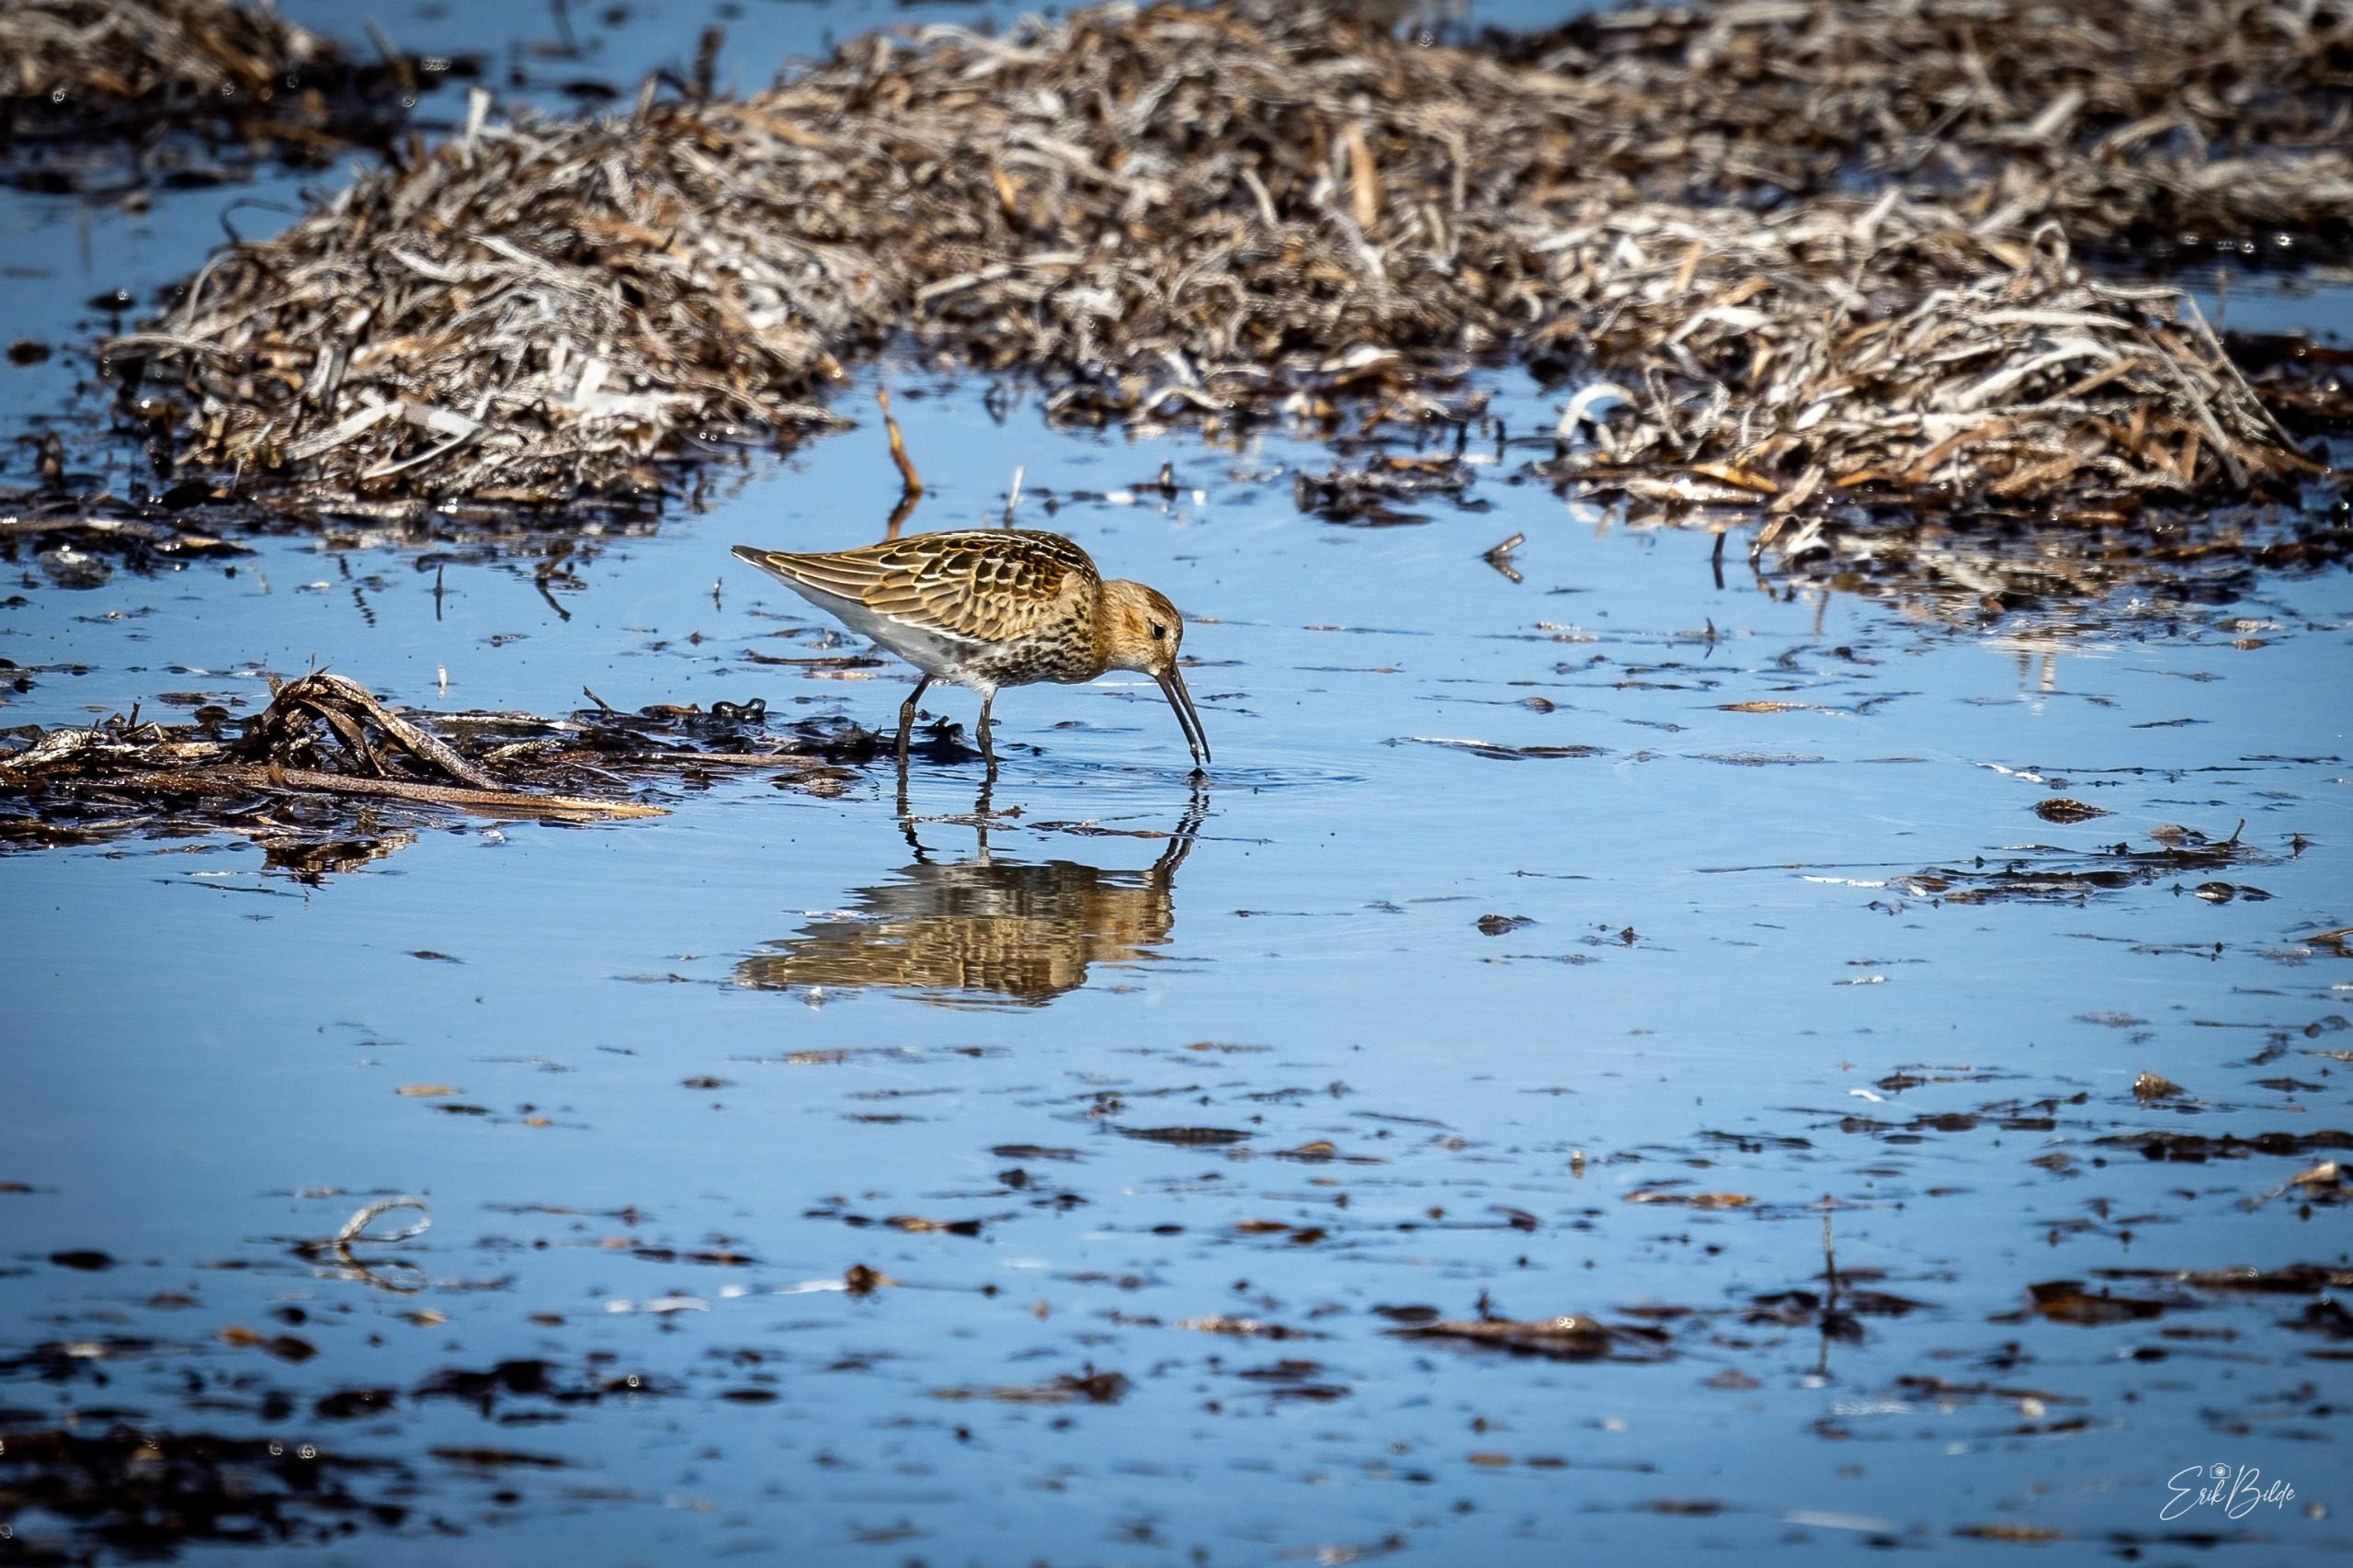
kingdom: Animalia
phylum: Chordata
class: Aves
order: Charadriiformes
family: Scolopacidae
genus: Calidris
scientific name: Calidris alpina
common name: Almindelig ryle
